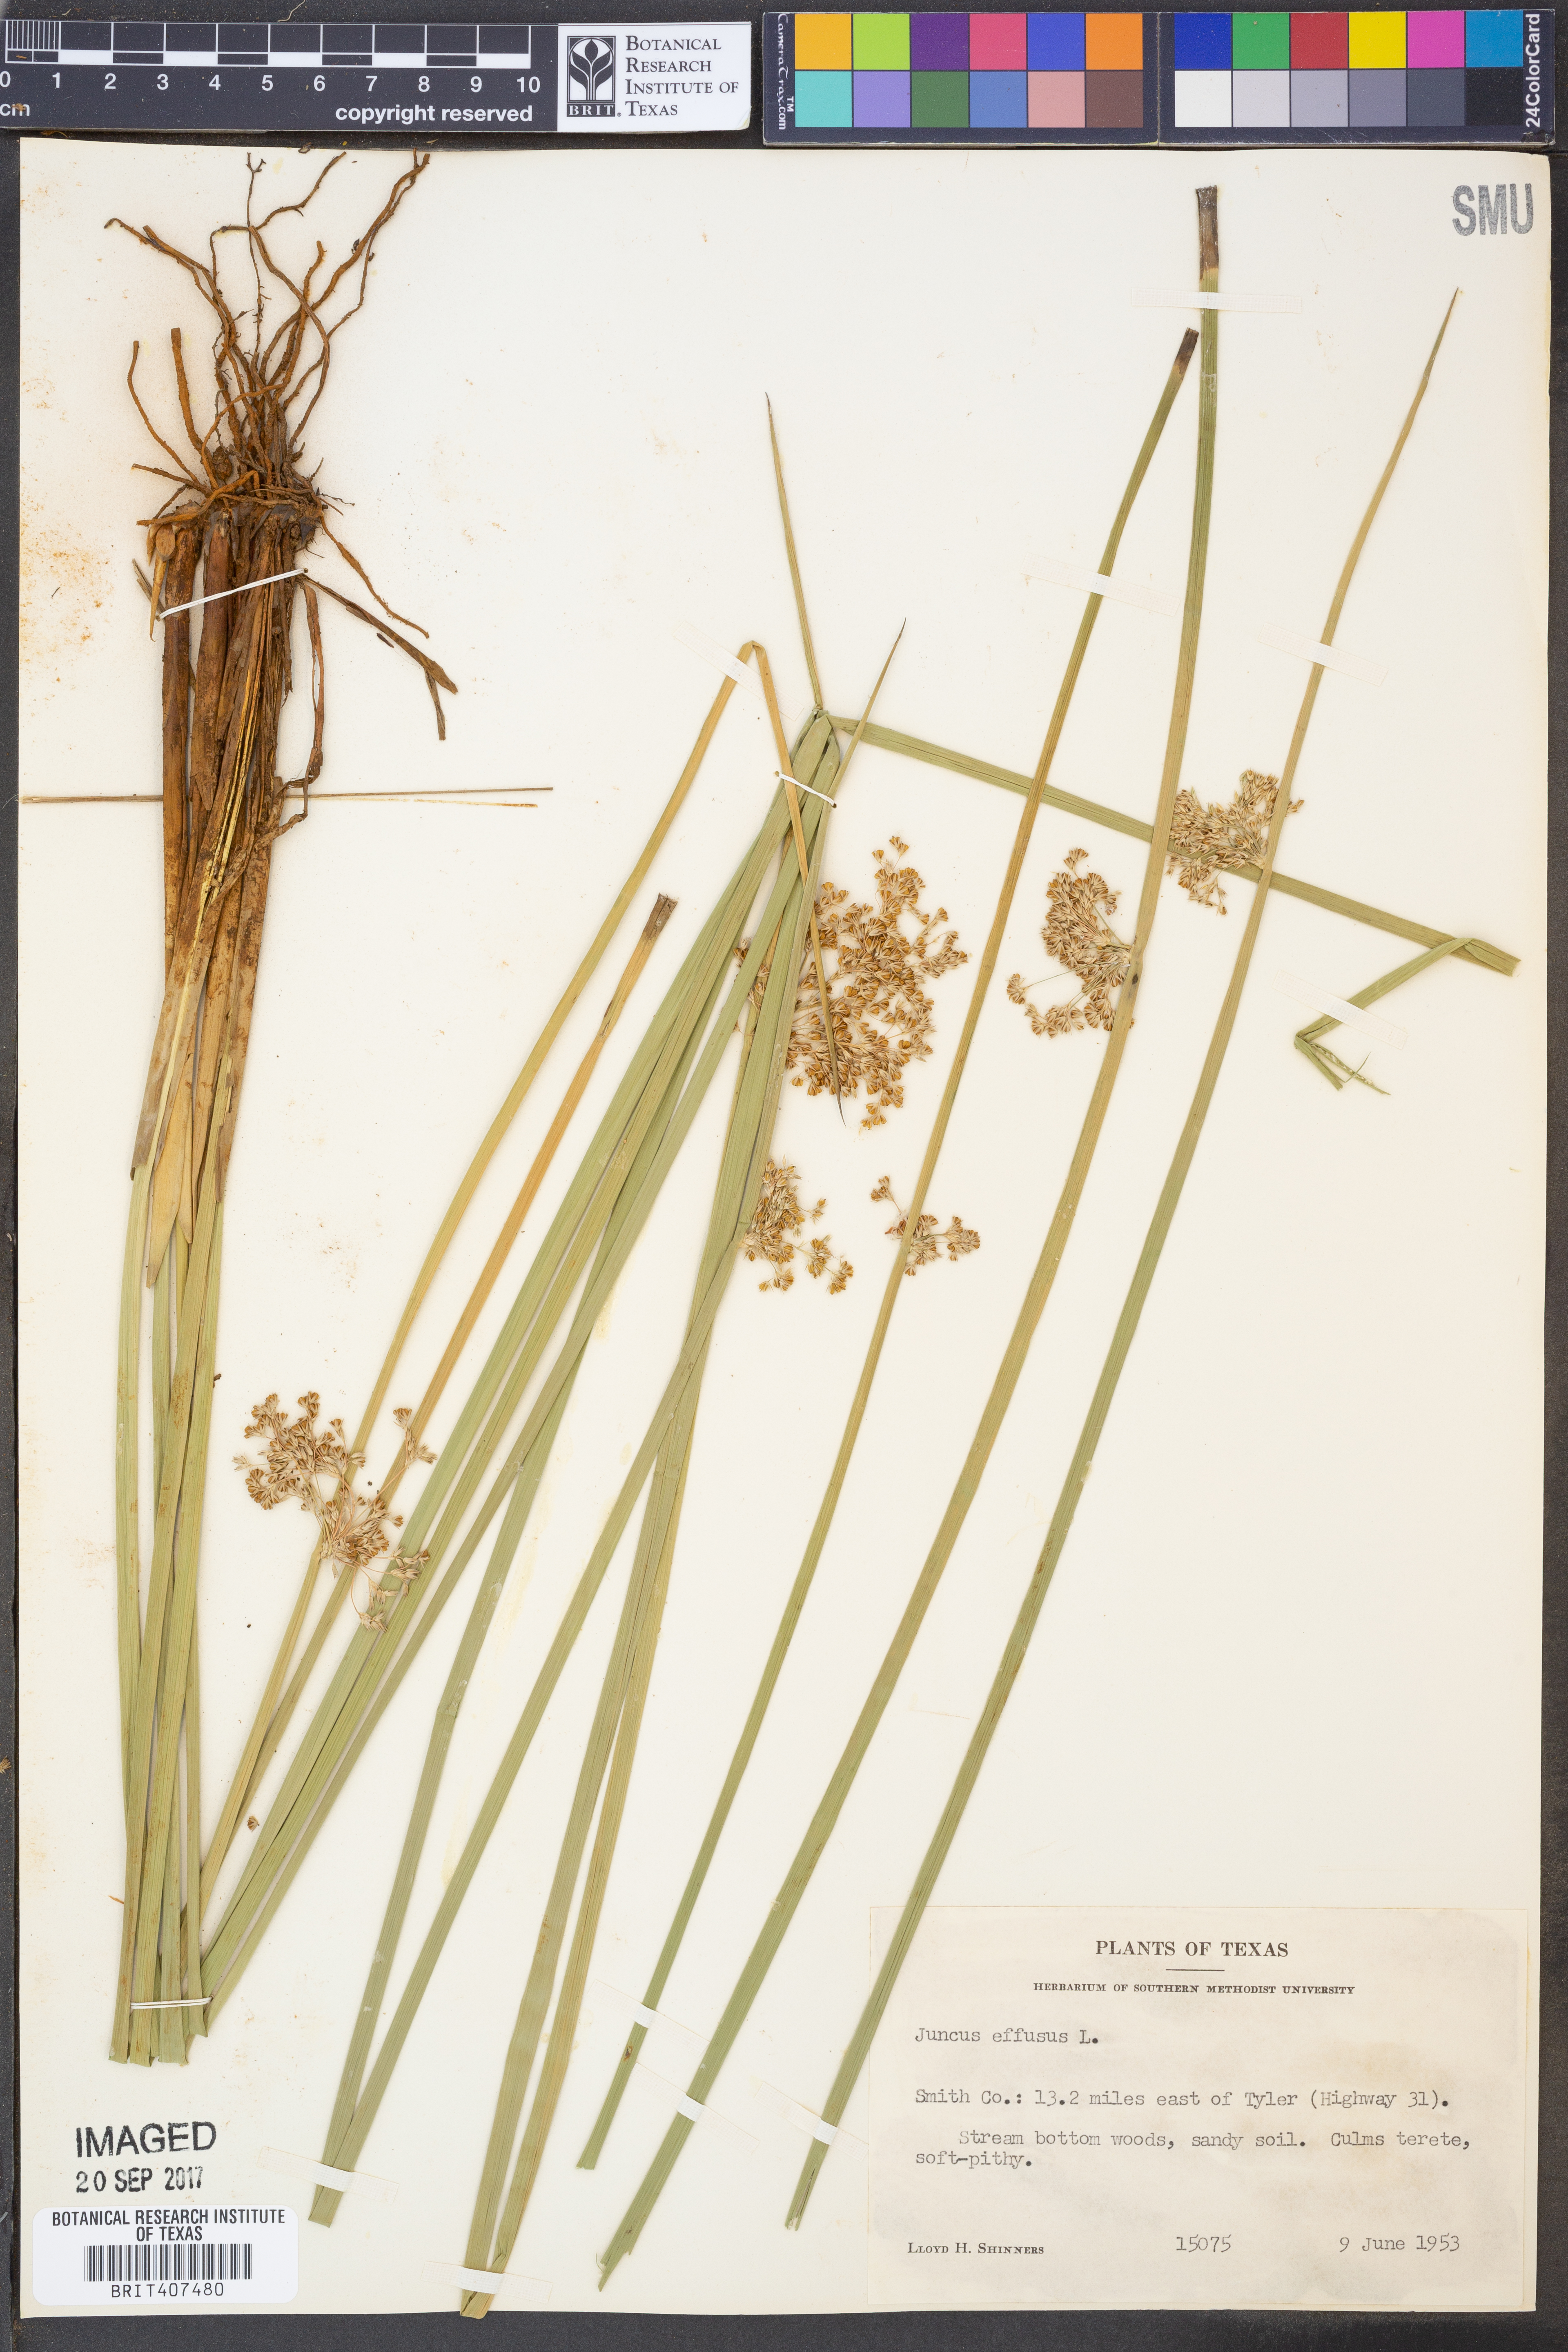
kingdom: Plantae
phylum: Tracheophyta
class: Liliopsida
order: Poales
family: Juncaceae
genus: Juncus
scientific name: Juncus effusus
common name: Soft rush
